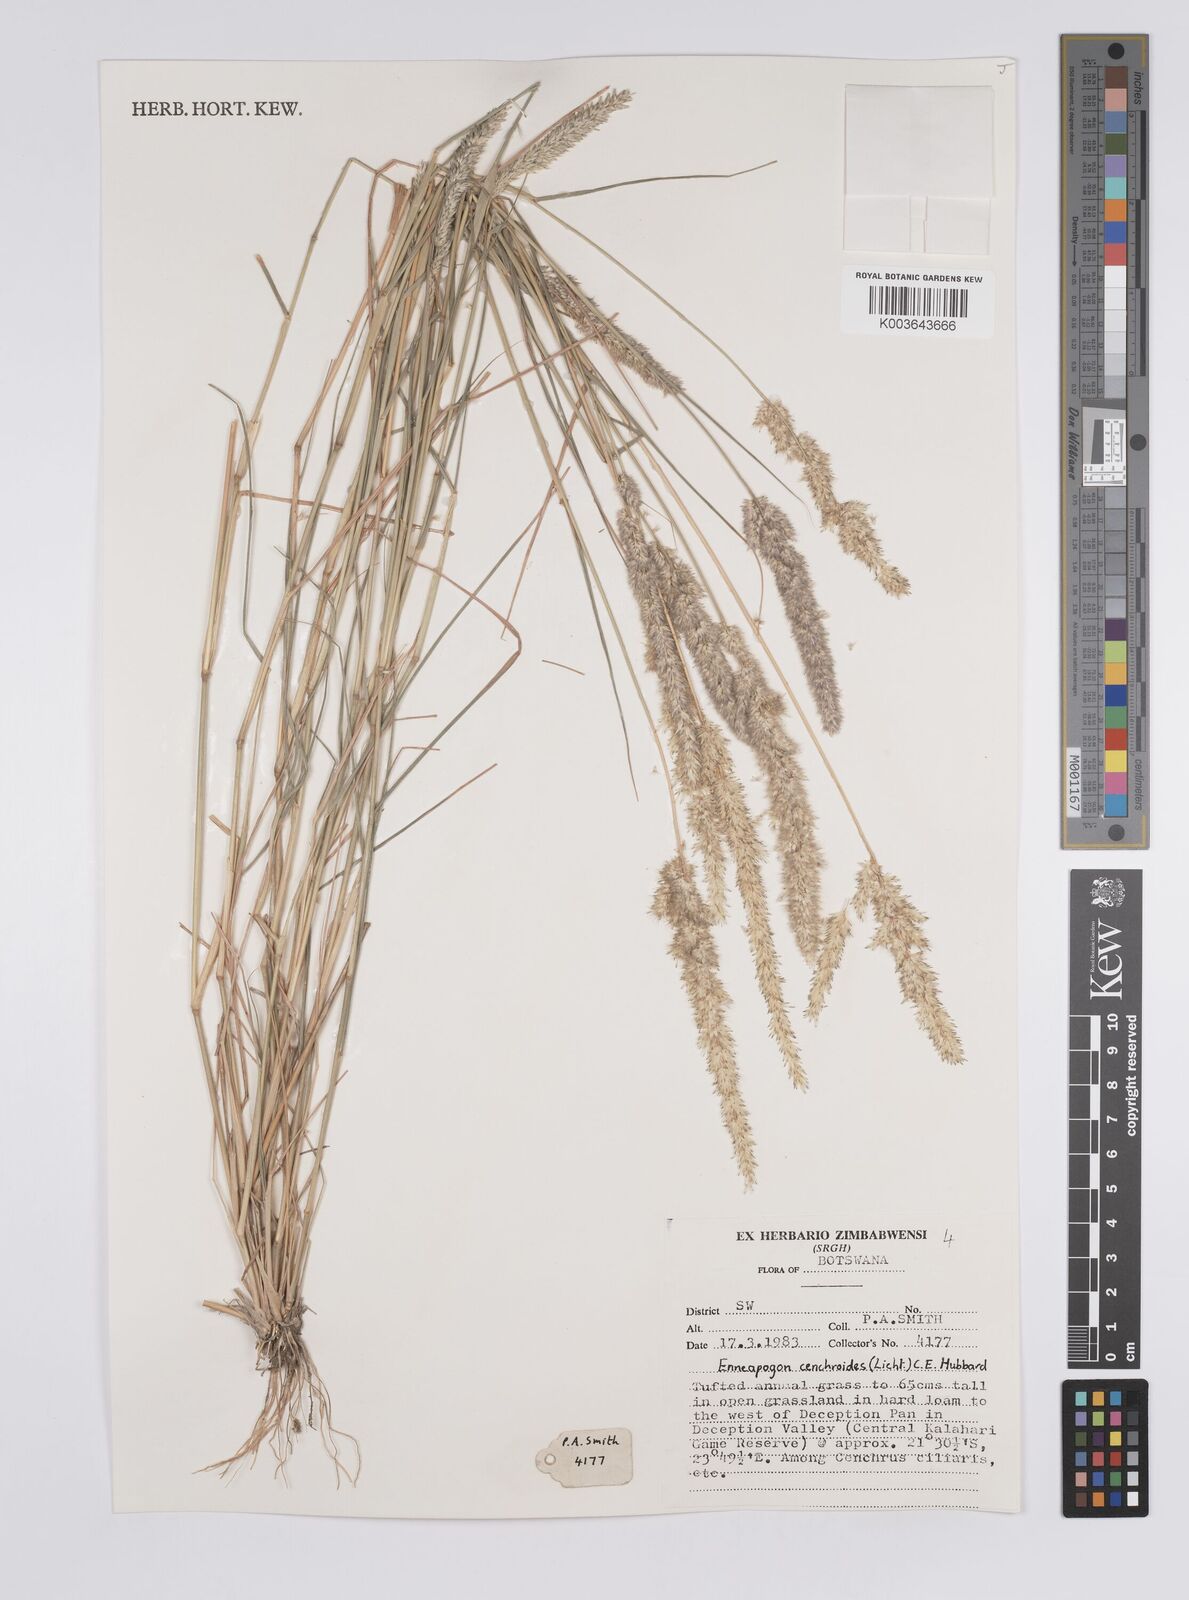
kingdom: Plantae
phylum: Tracheophyta
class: Liliopsida
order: Poales
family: Poaceae
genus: Enneapogon
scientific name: Enneapogon cenchroides
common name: Soft feather pappusgrass
